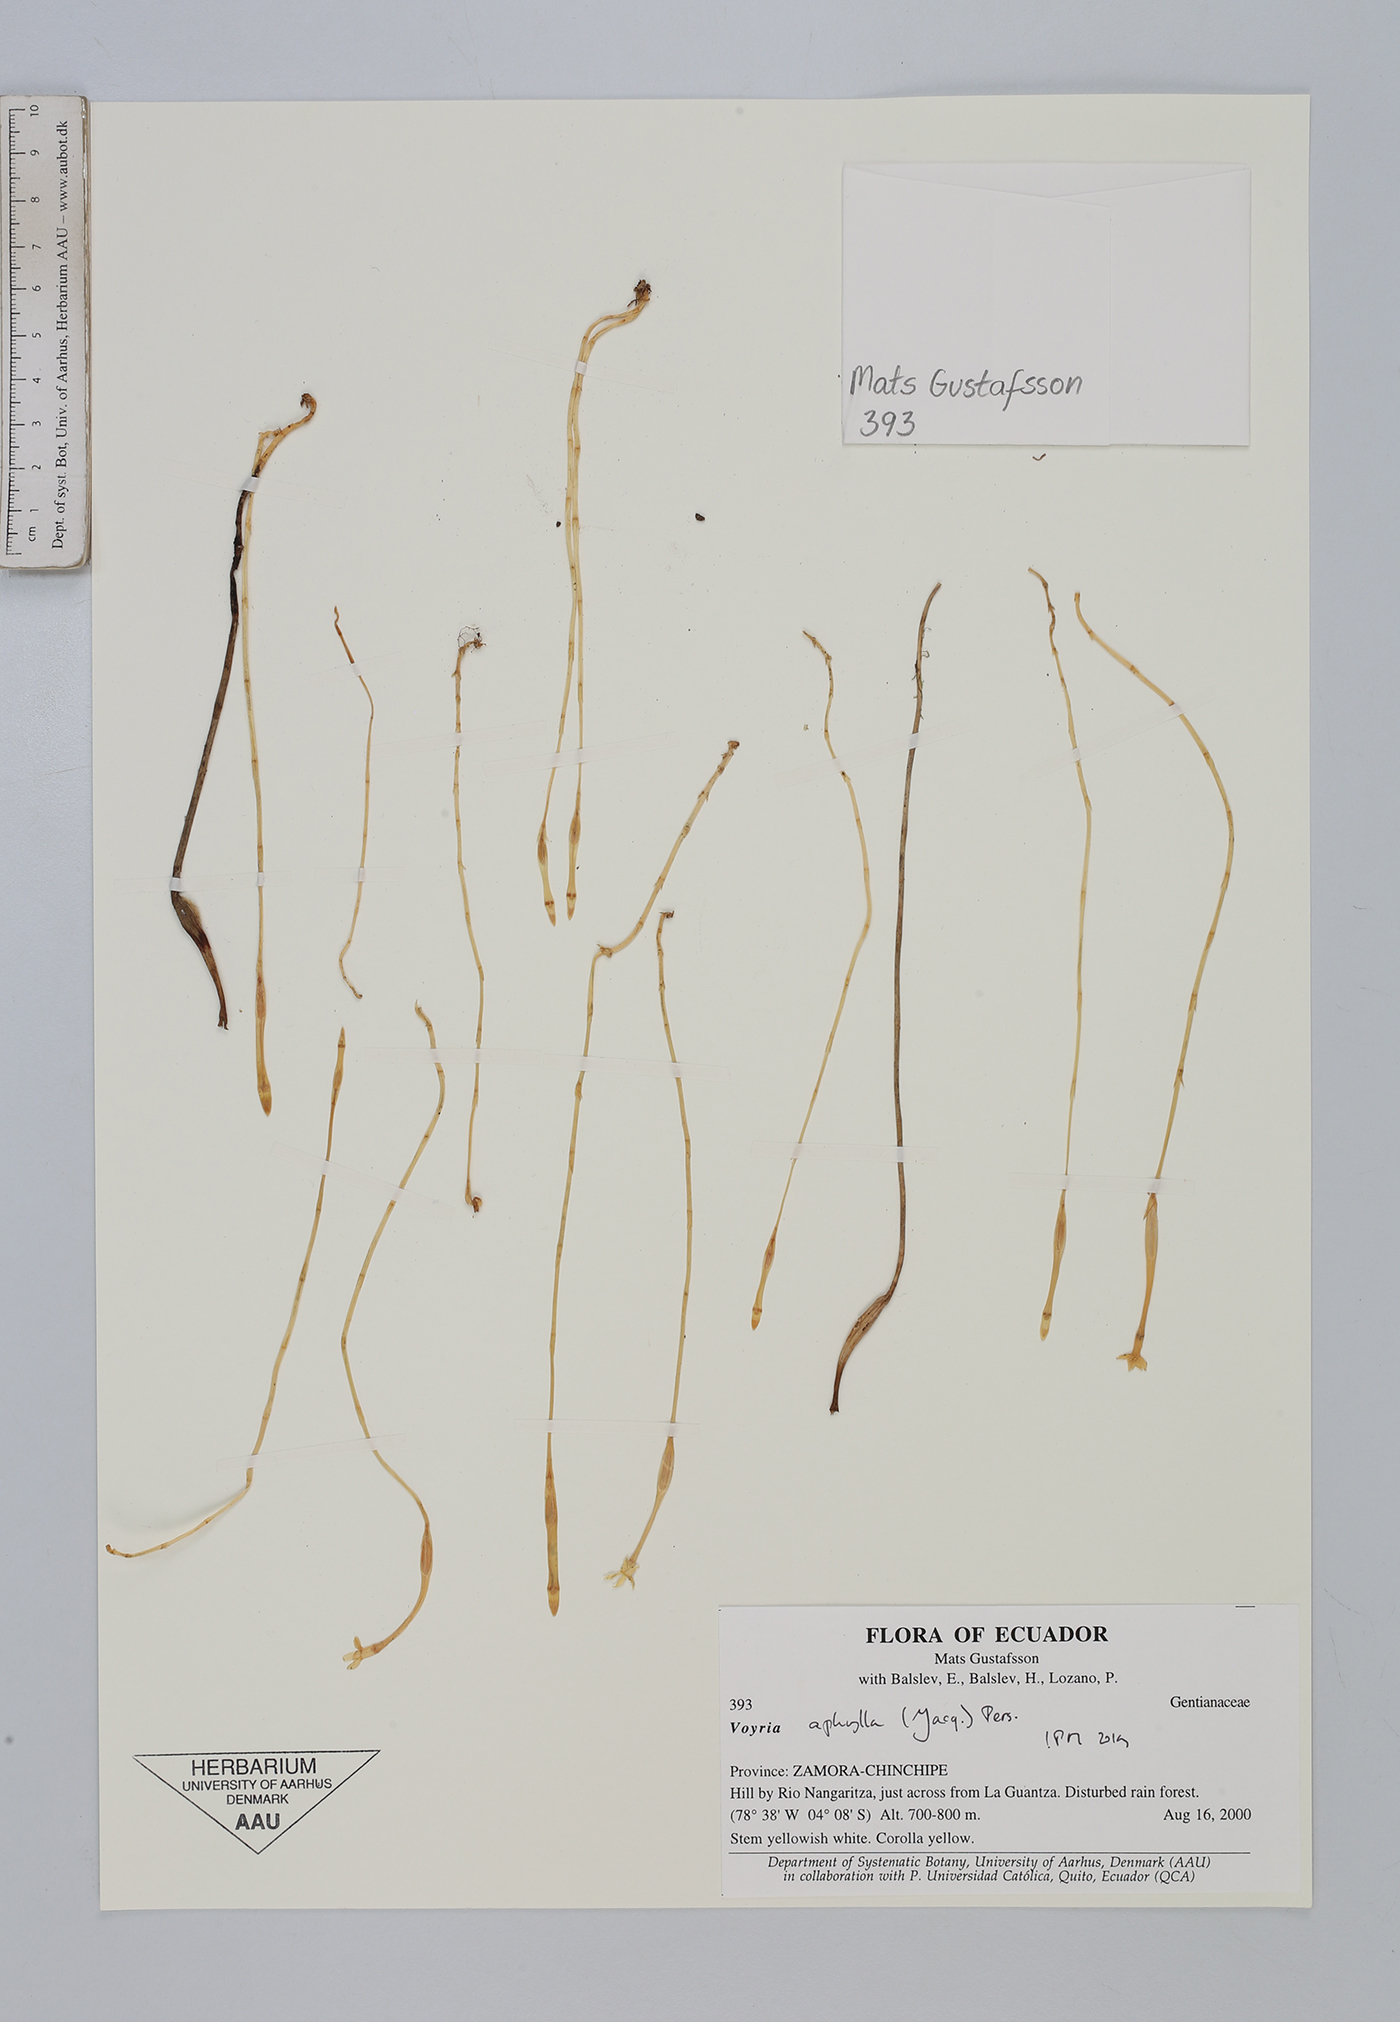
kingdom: Plantae
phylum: Tracheophyta
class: Magnoliopsida
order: Gentianales
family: Gentianaceae
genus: Voyria
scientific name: Voyria aphylla
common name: Leafless ghost plant
